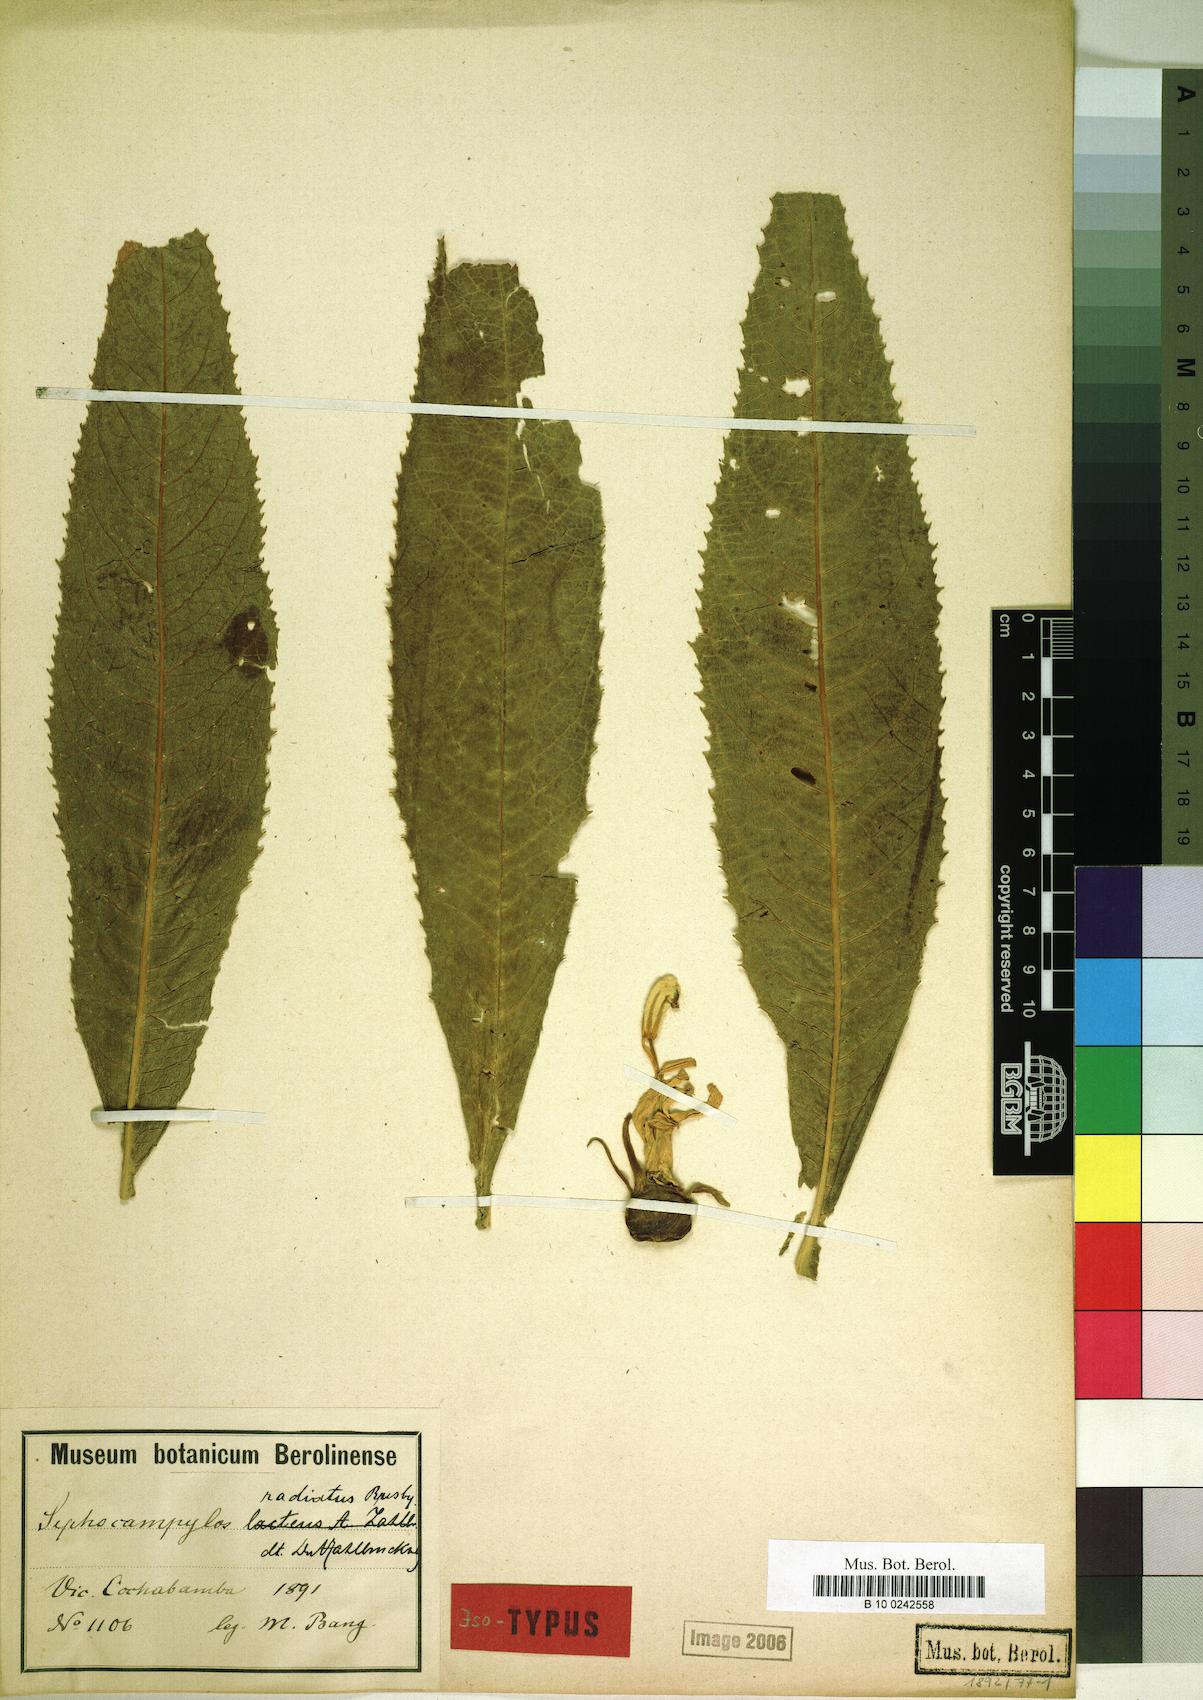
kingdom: Plantae
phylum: Tracheophyta
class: Magnoliopsida
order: Asterales
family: Campanulaceae
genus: Siphocampylus
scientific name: Siphocampylus radiatus
